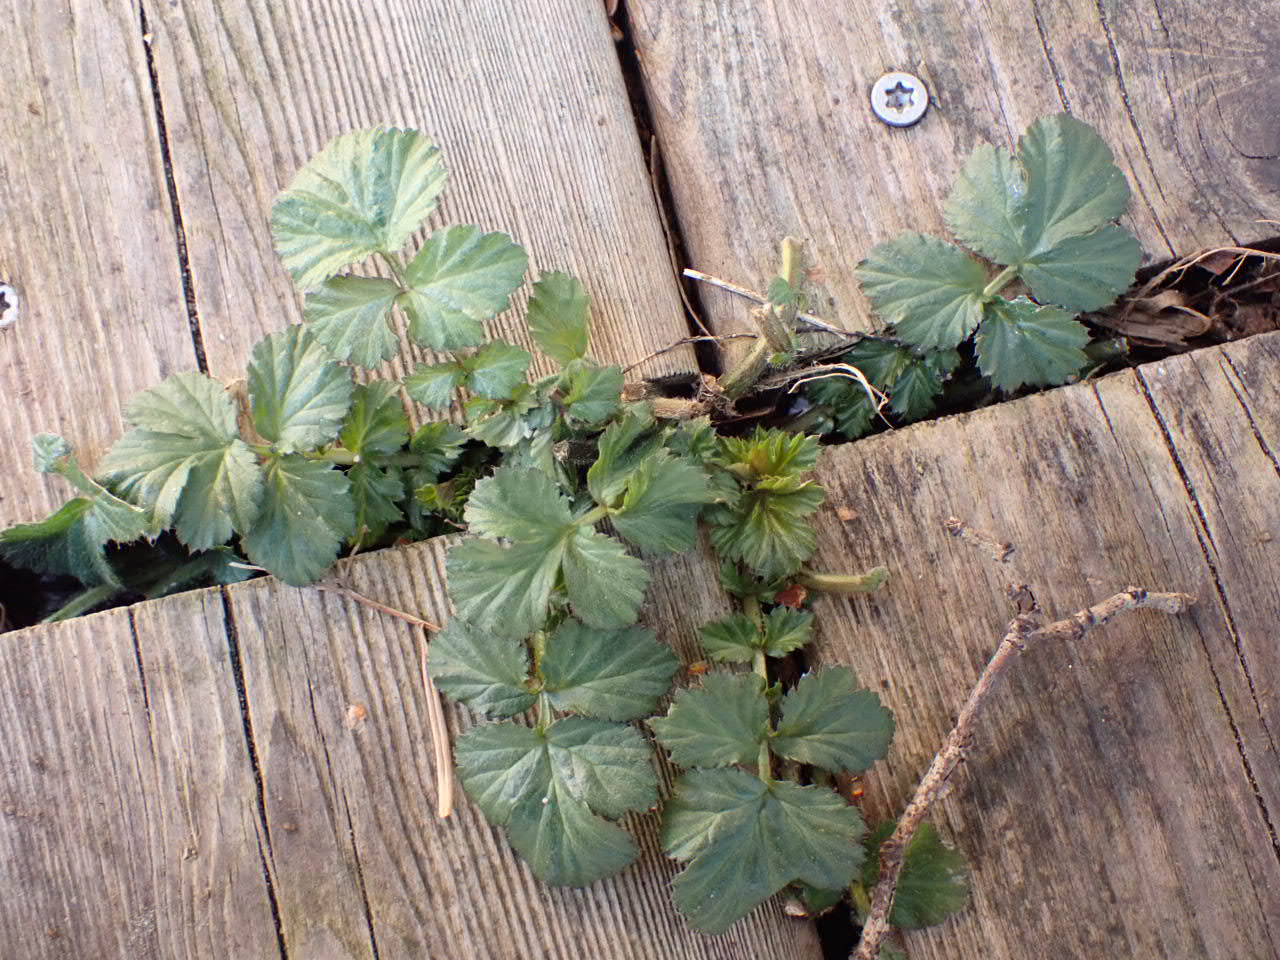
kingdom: Plantae
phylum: Tracheophyta
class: Magnoliopsida
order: Rosales
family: Rosaceae
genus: Geum
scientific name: Geum urbanum
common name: Feber-nellikerod
